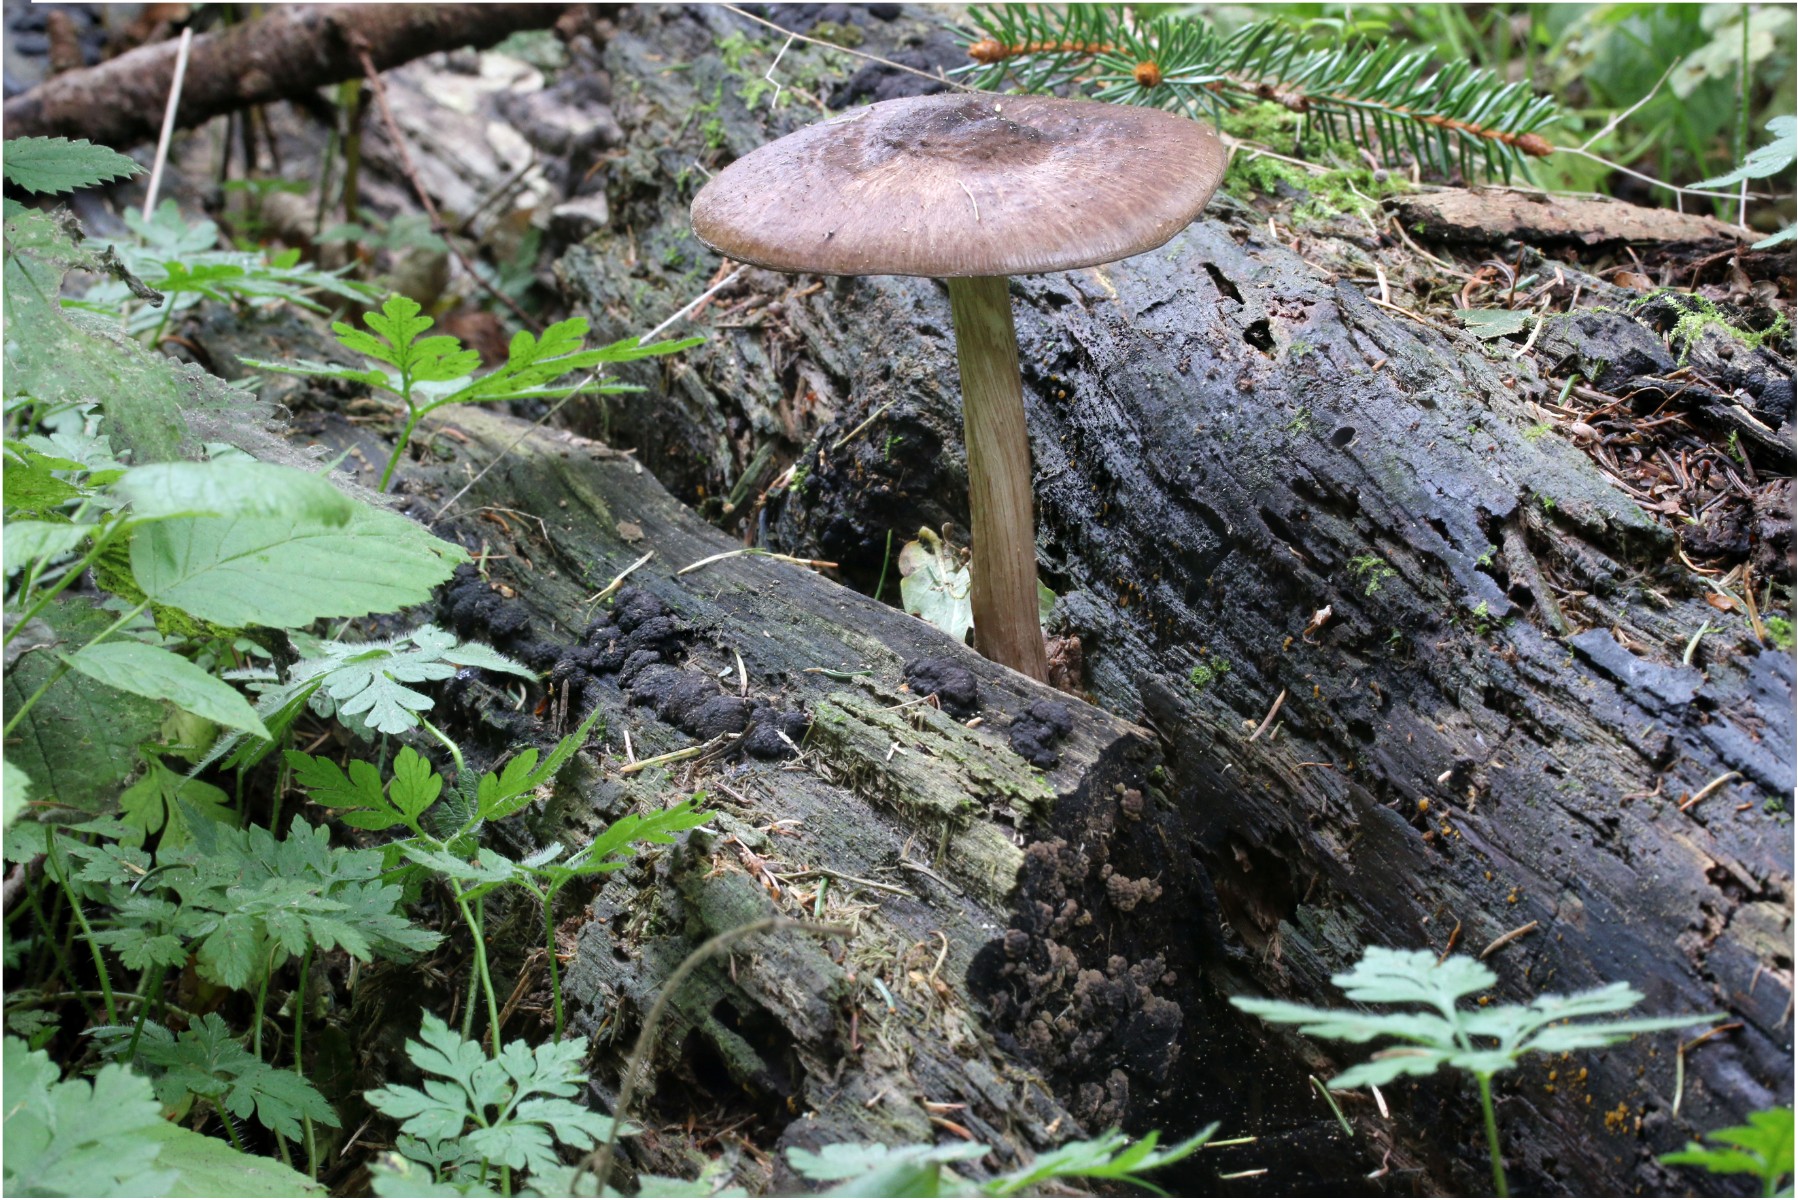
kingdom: Fungi
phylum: Basidiomycota
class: Agaricomycetes
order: Agaricales
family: Pluteaceae
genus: Pluteus
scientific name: Pluteus cervinus
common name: sodfarvet skærmhat
